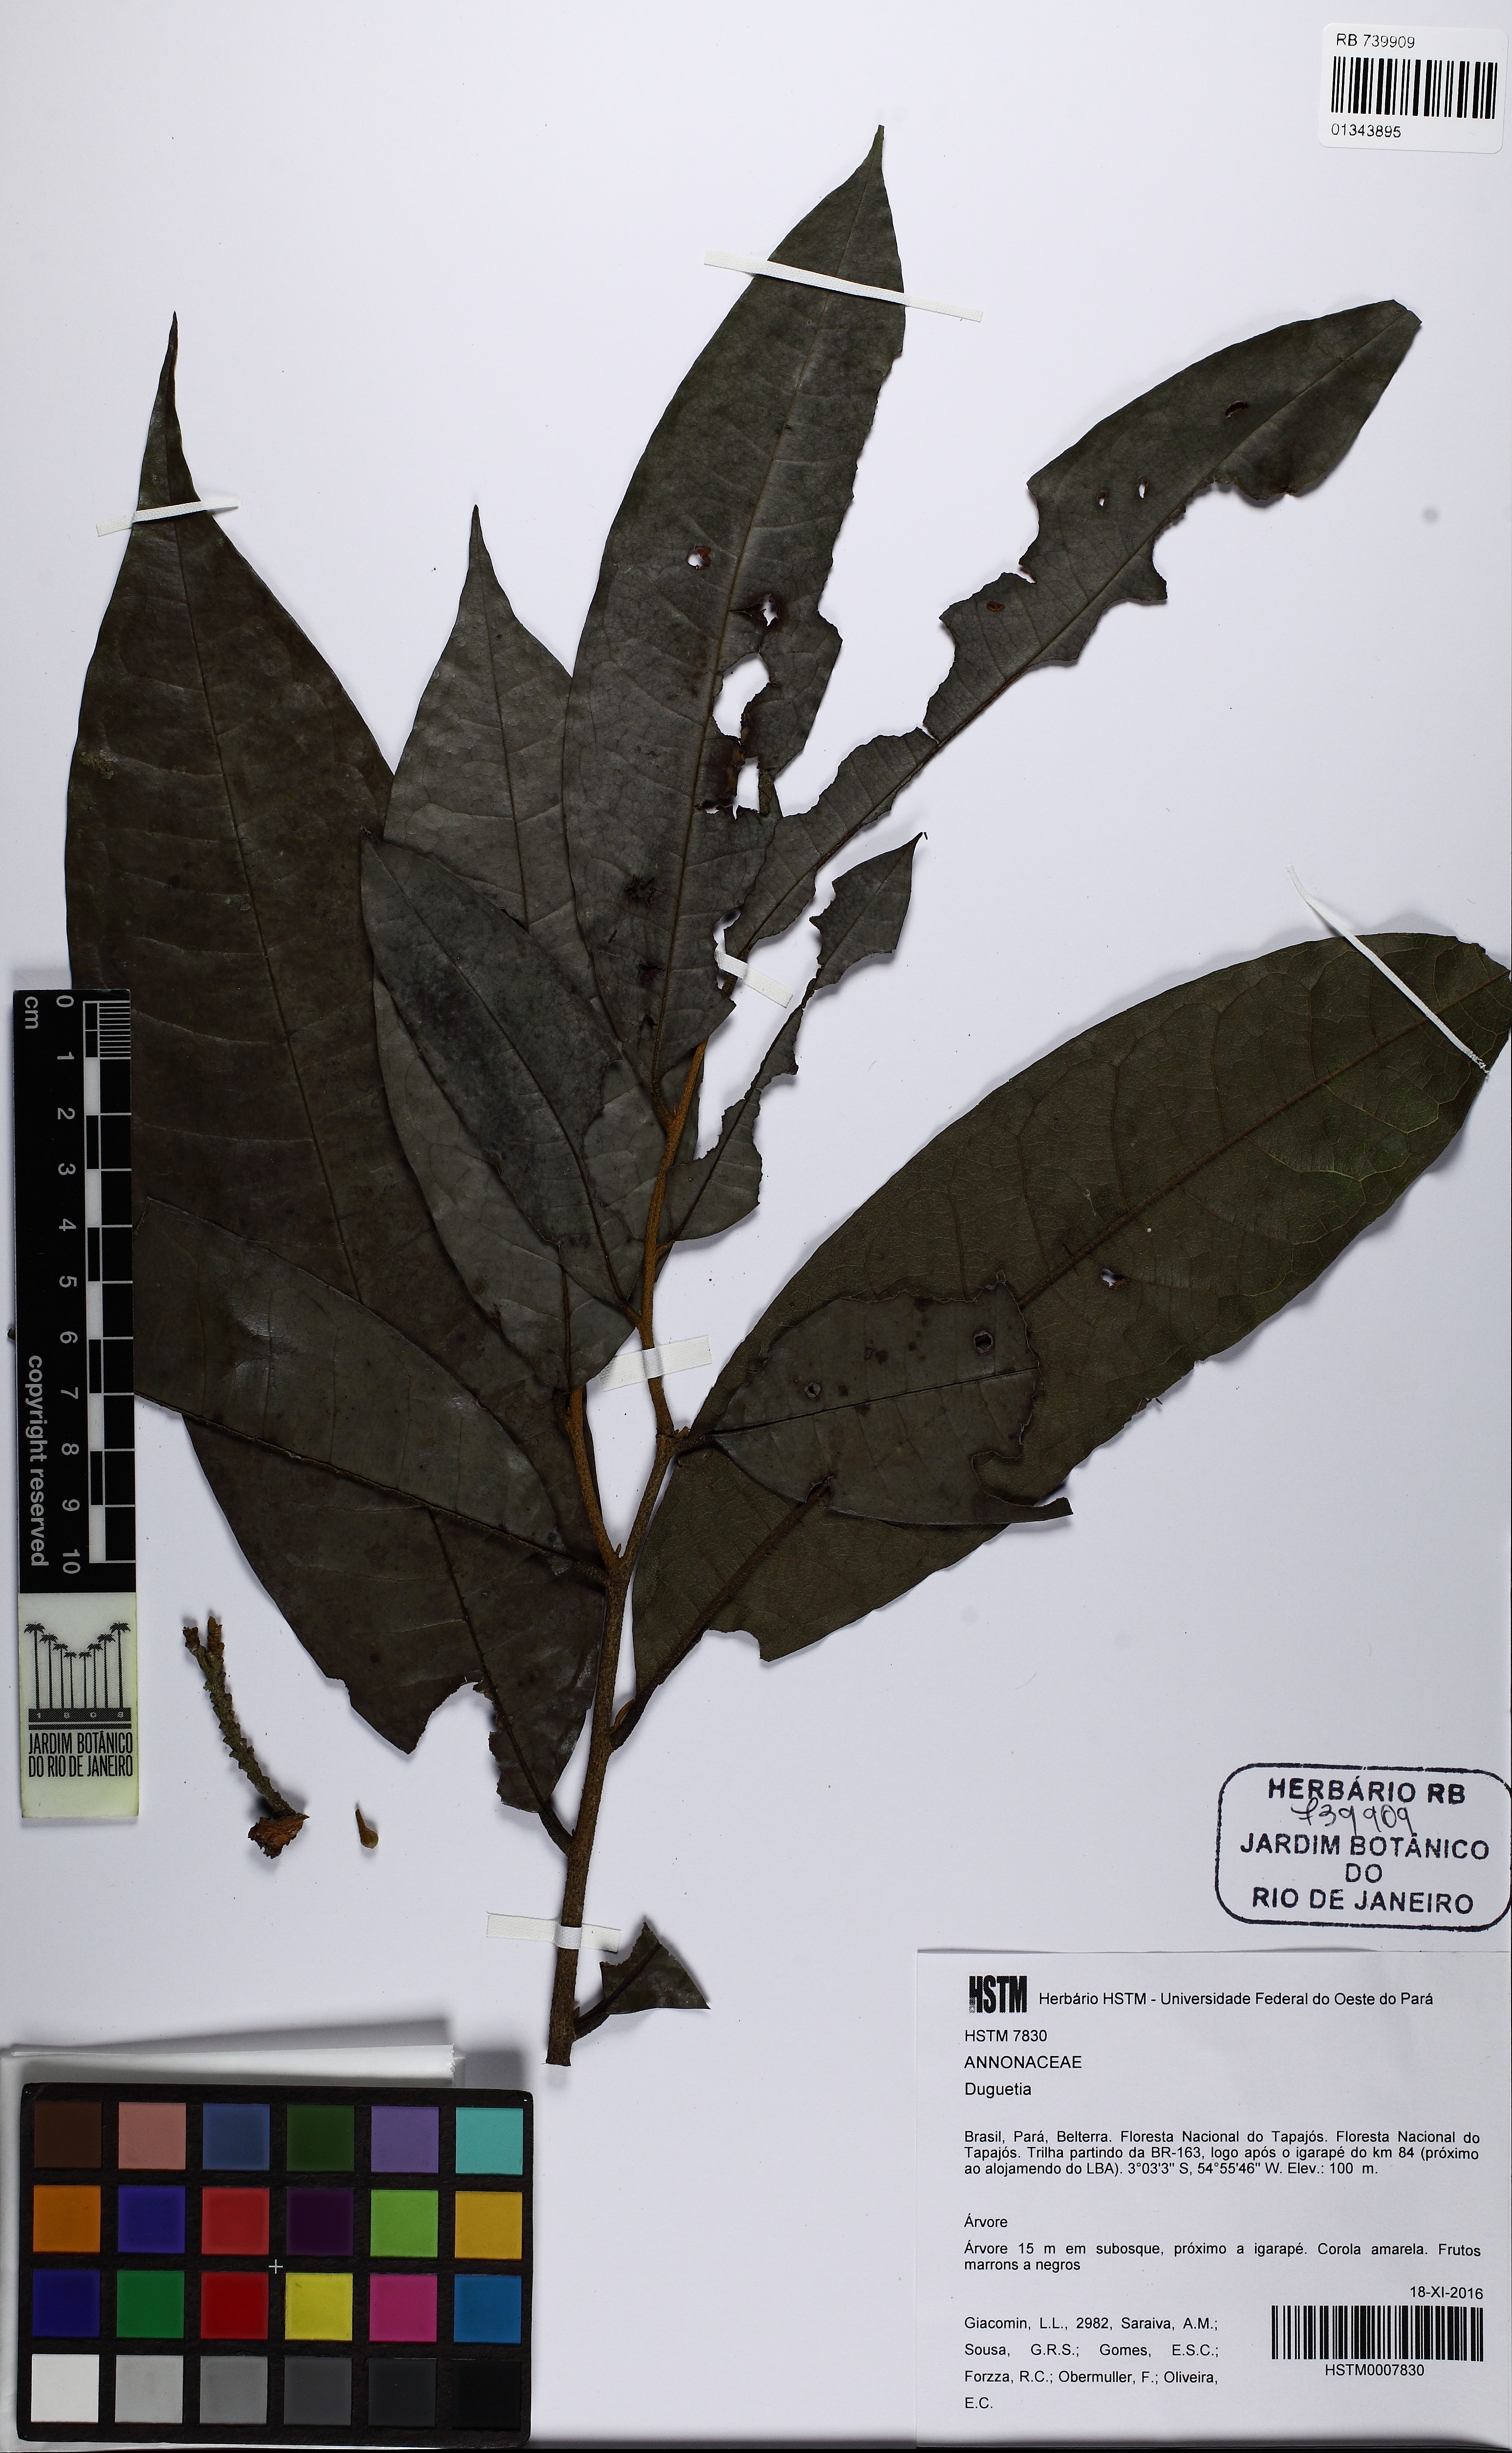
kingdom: Plantae
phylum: Tracheophyta
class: Magnoliopsida
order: Magnoliales
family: Annonaceae
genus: Duguetia
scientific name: Duguetia stelechantha
